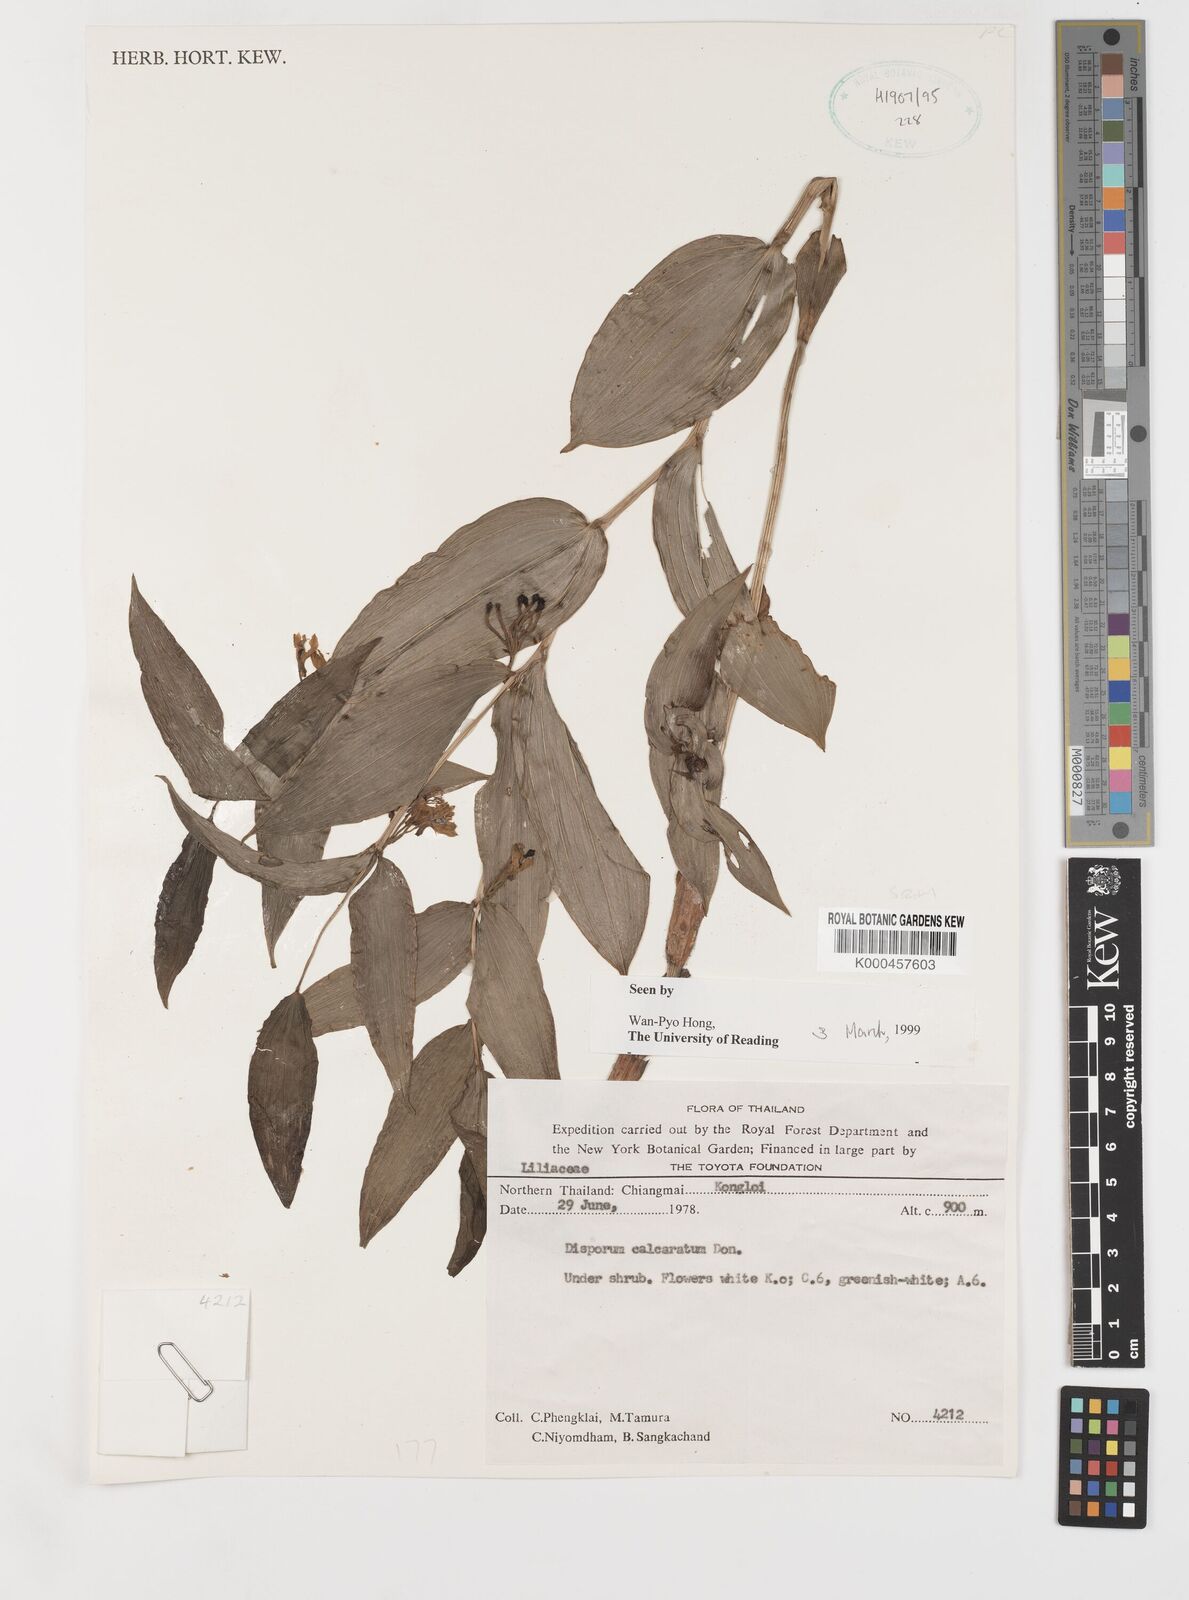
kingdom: Plantae
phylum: Tracheophyta
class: Liliopsida
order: Liliales
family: Colchicaceae
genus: Disporum
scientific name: Disporum calcaratum
